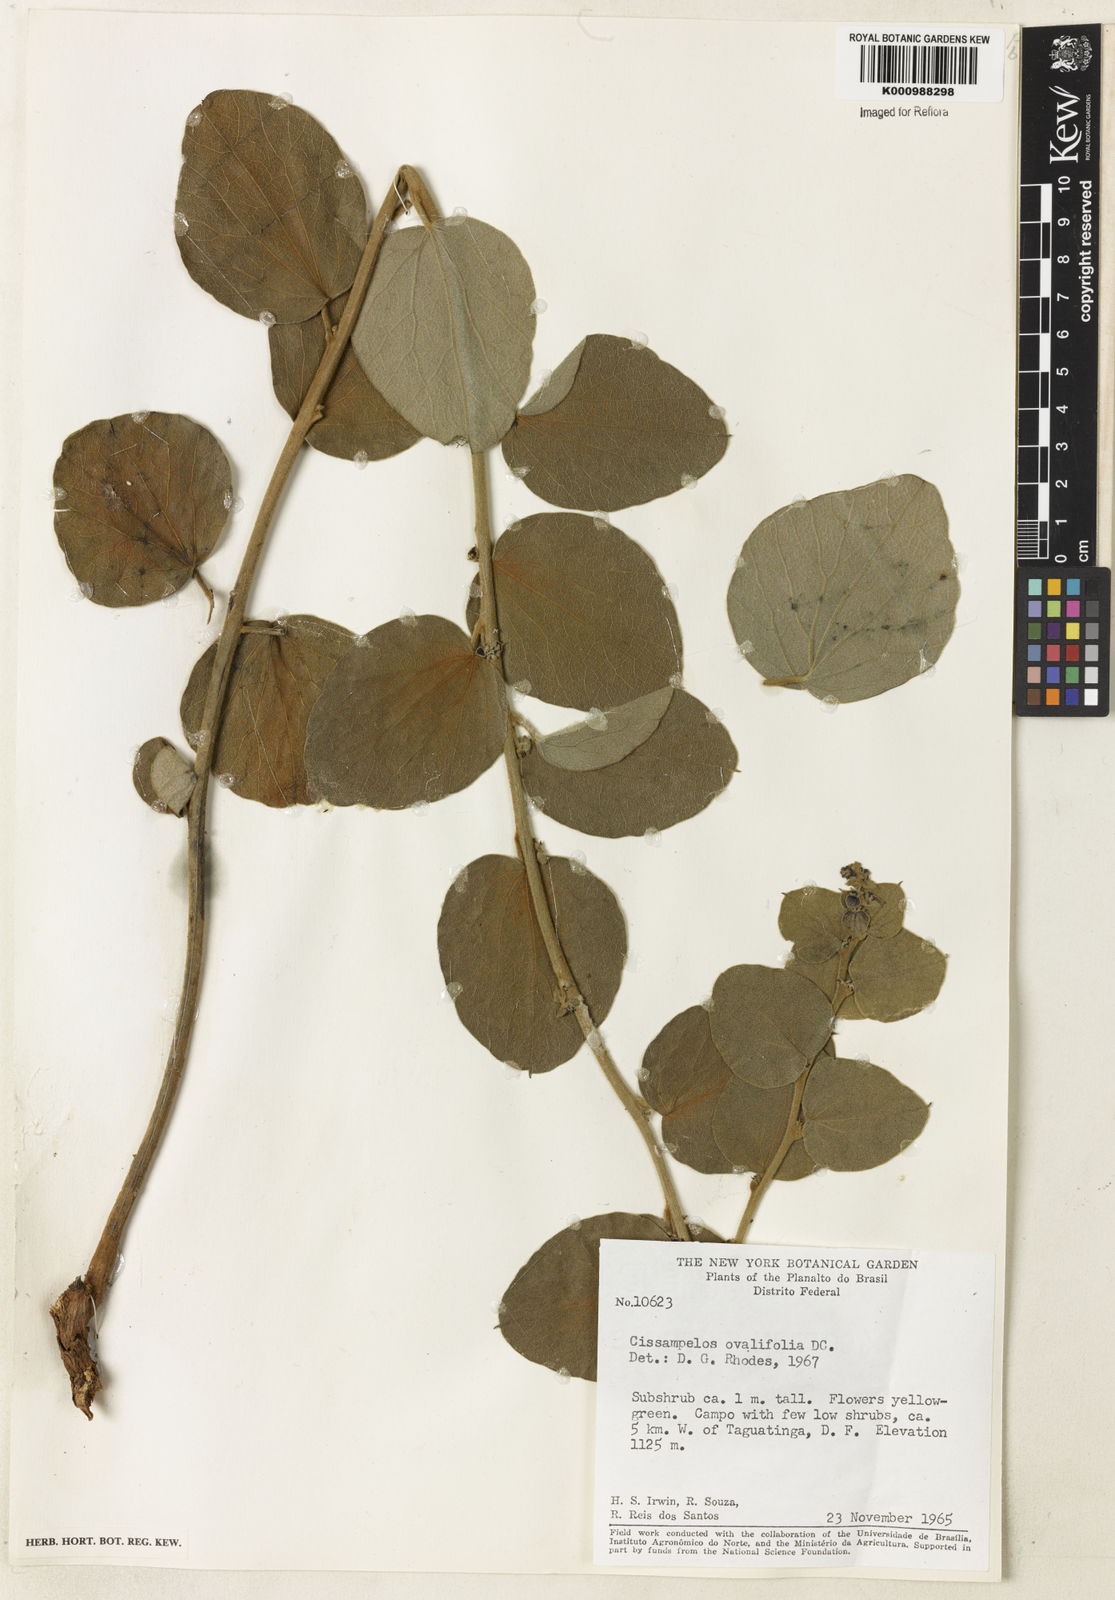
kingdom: Plantae
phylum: Tracheophyta
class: Magnoliopsida
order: Ranunculales
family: Menispermaceae
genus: Cissampelos
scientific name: Cissampelos ovalifolia
